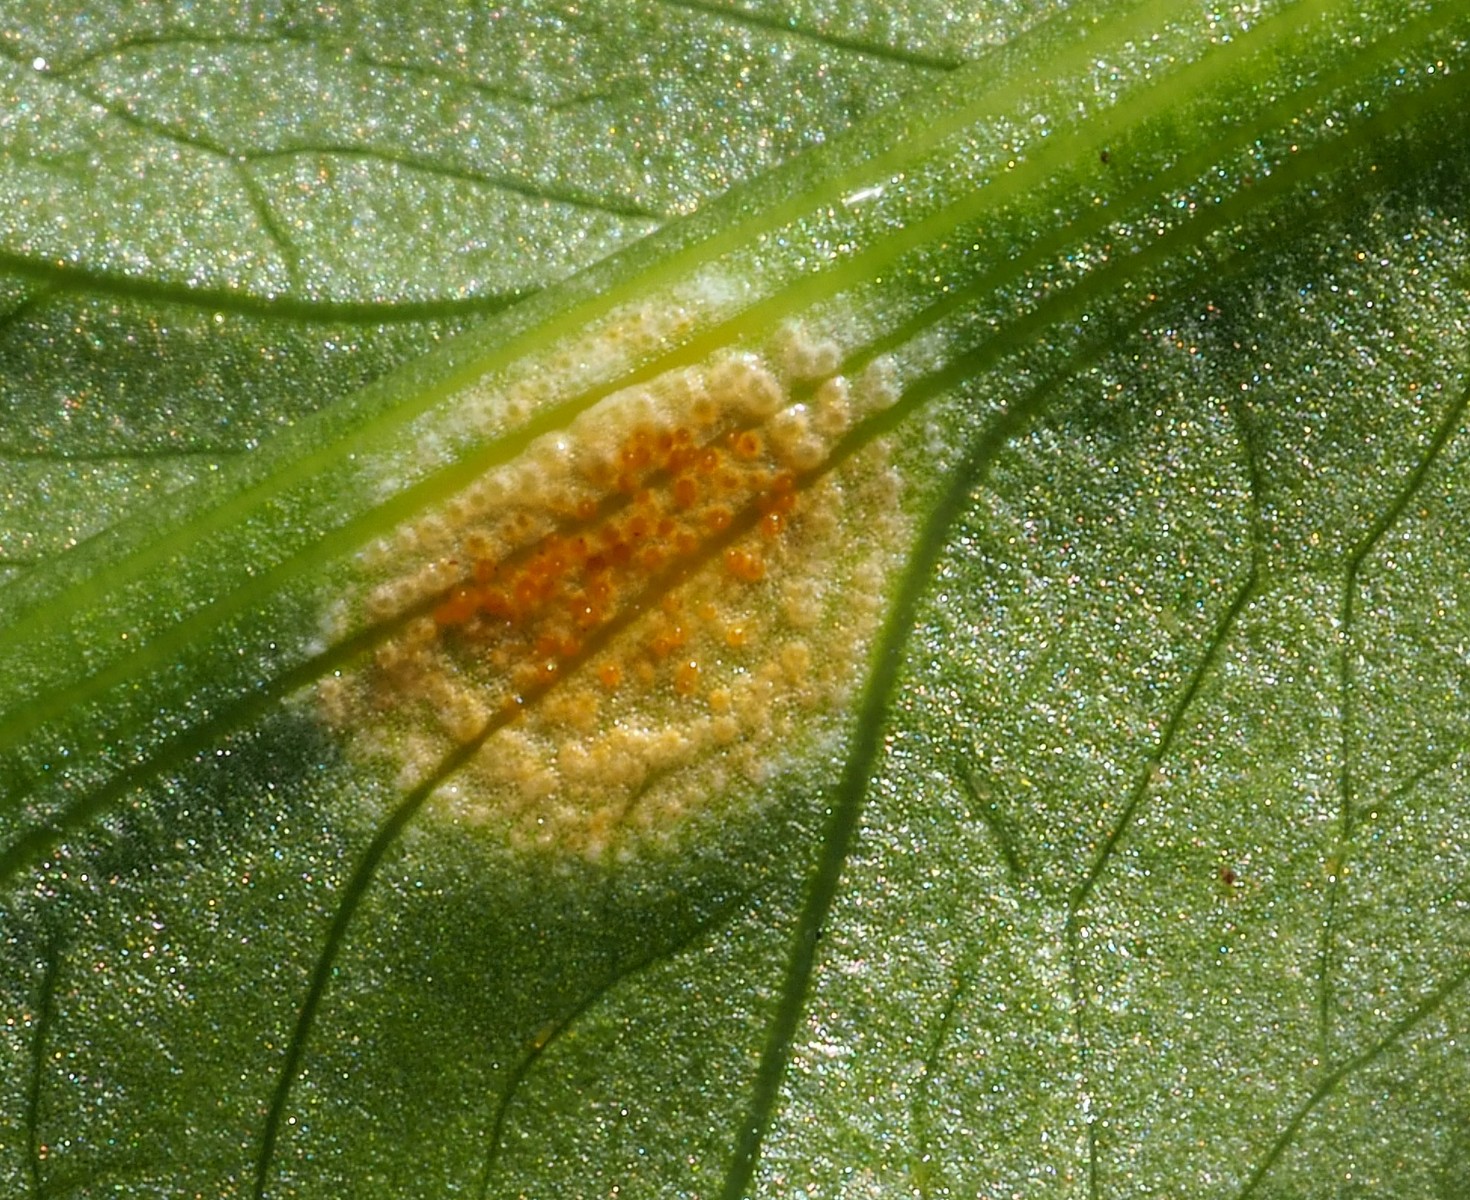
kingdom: Fungi
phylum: Basidiomycota
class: Pucciniomycetes
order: Pucciniales
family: Pucciniaceae
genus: Puccinia
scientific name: Puccinia sessilis
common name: Arum rust
